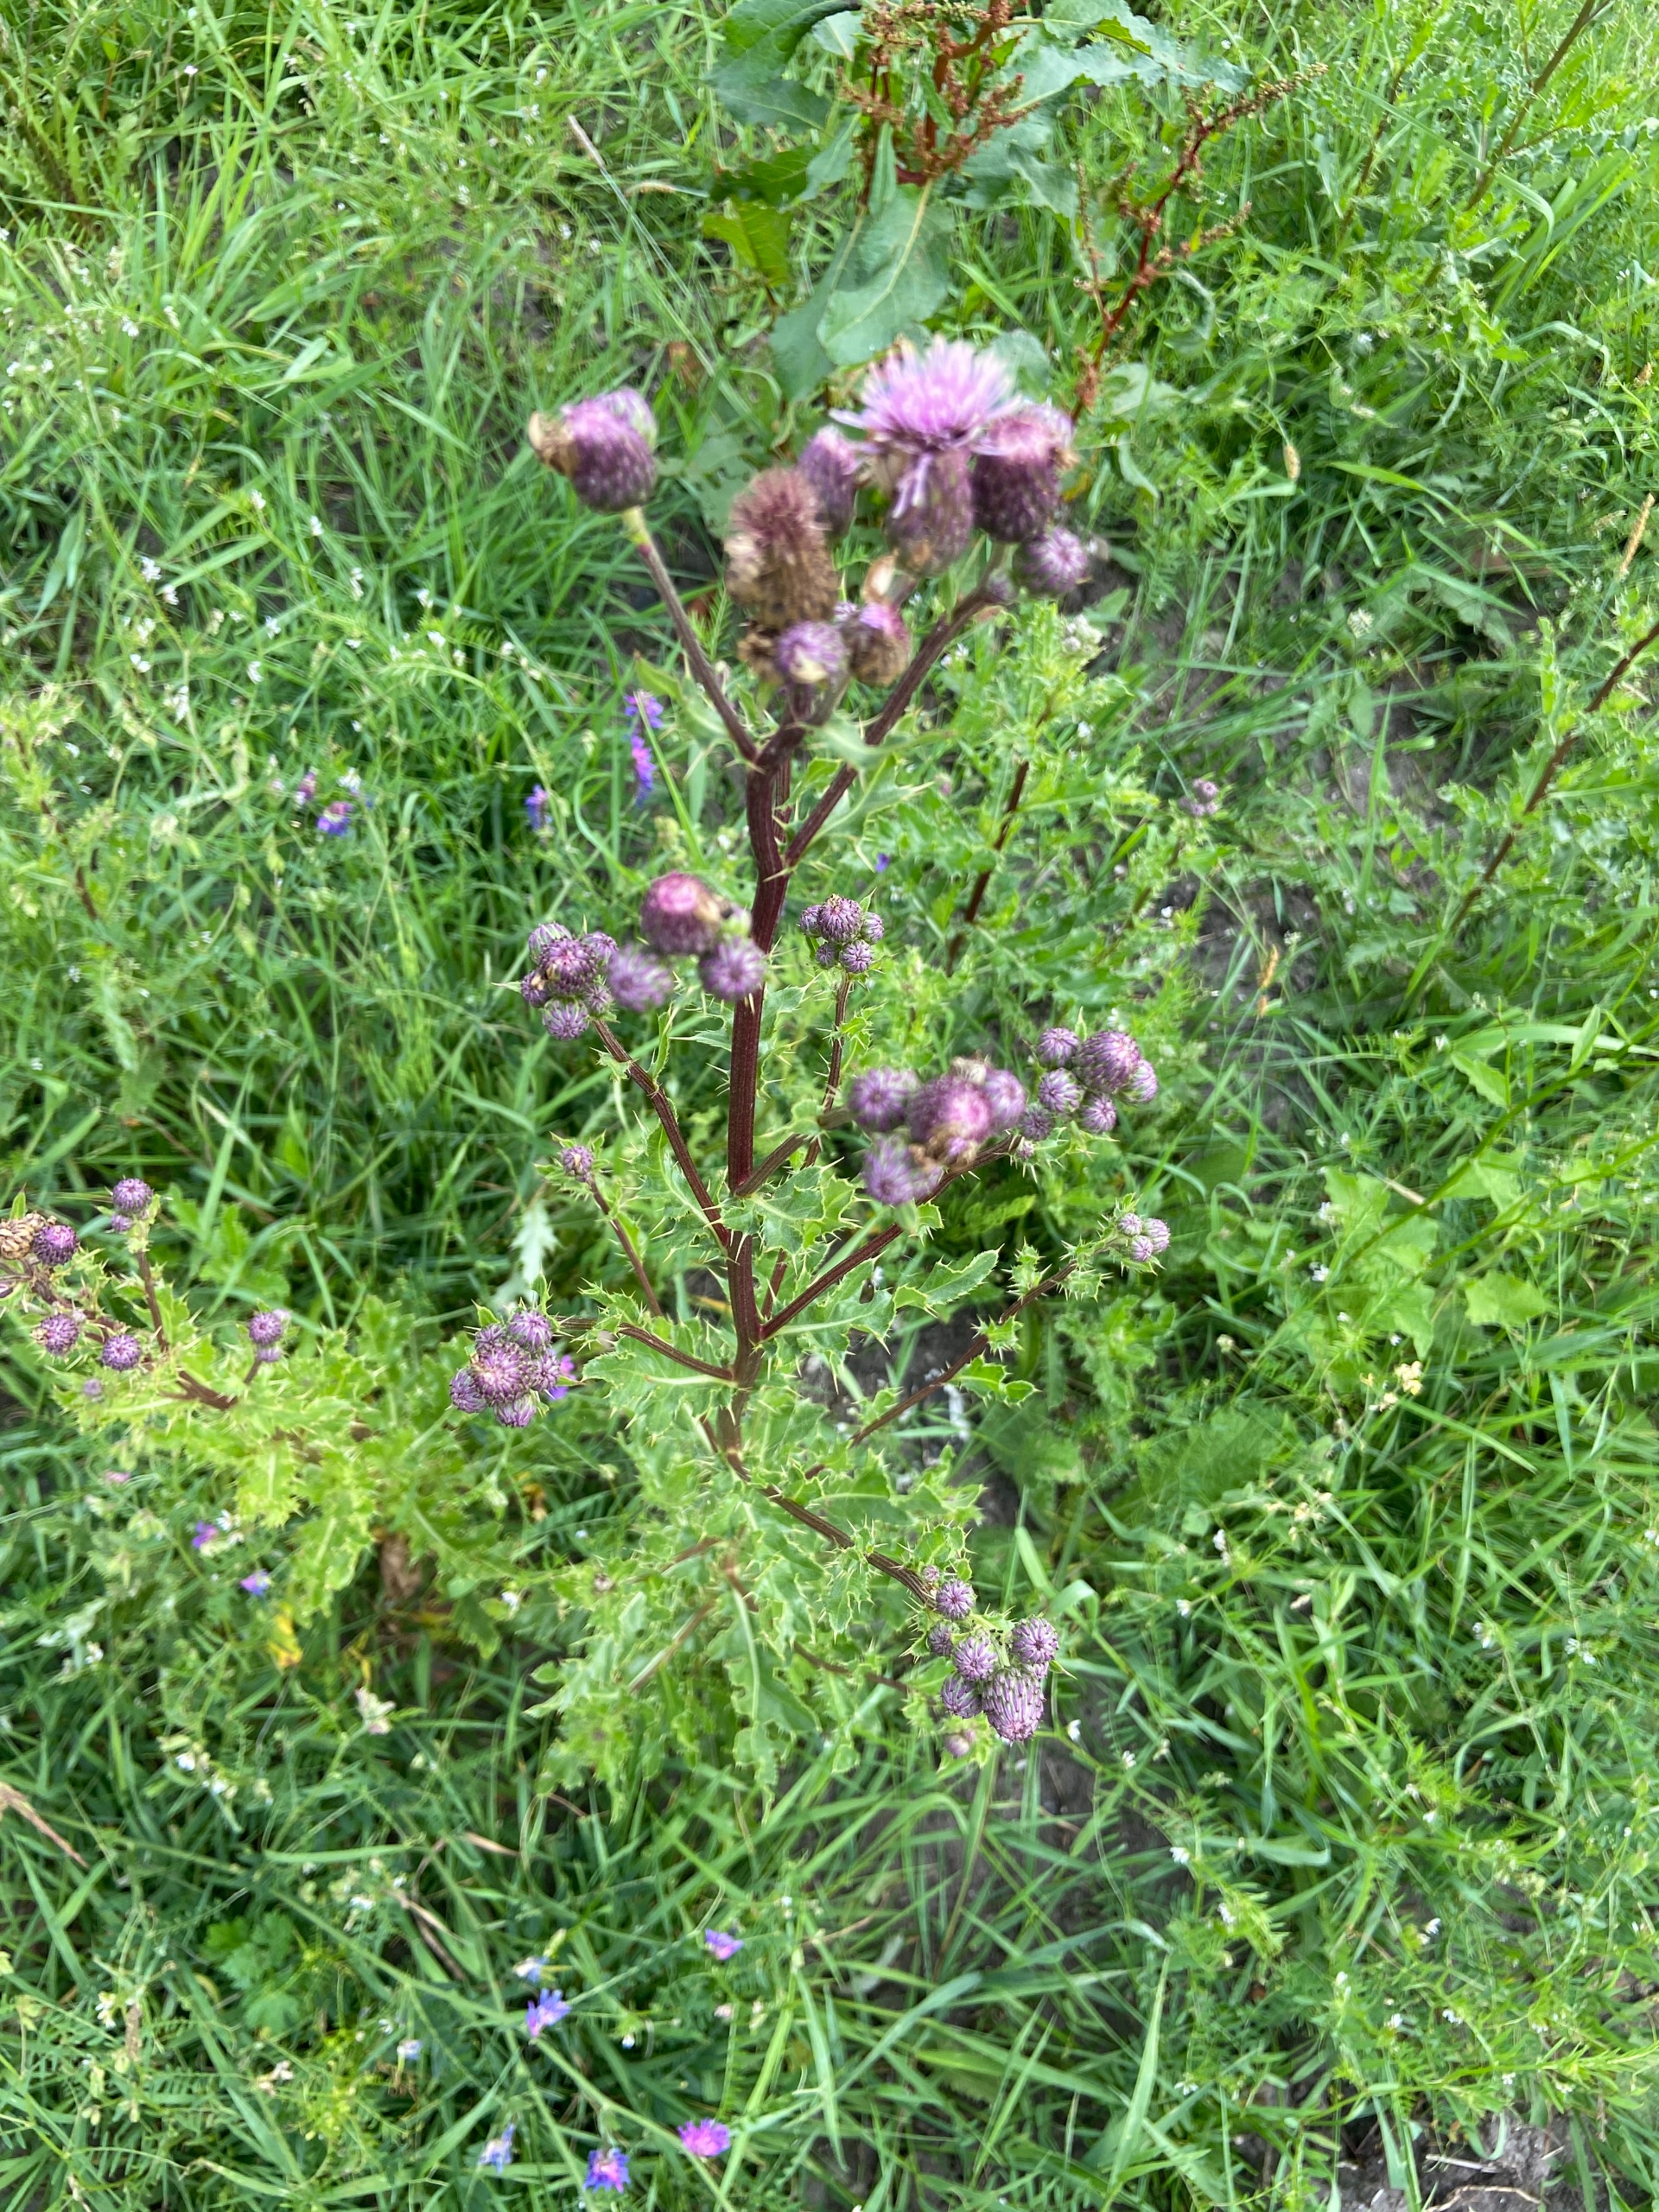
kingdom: Plantae
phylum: Tracheophyta
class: Magnoliopsida
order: Asterales
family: Asteraceae
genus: Cirsium
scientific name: Cirsium arvense
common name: Ager-tidsel
